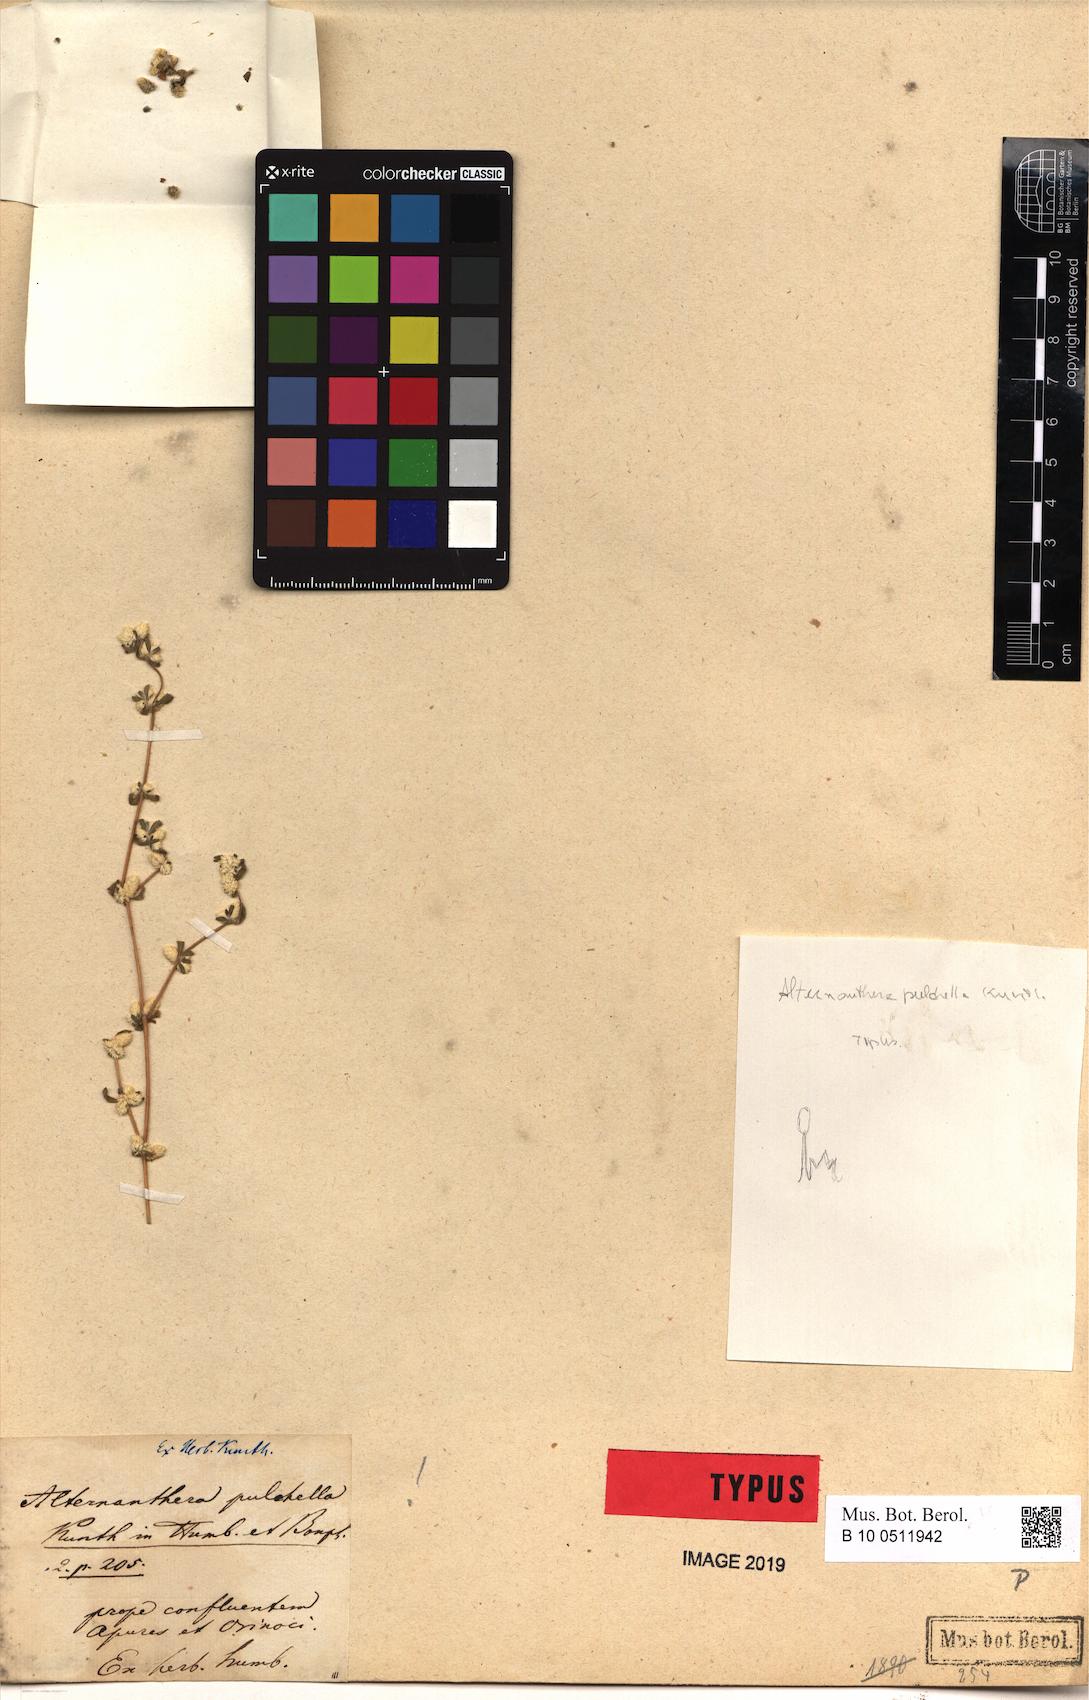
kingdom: Plantae
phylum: Tracheophyta
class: Magnoliopsida
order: Caryophyllales
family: Amaranthaceae
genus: Alternanthera
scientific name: Alternanthera pulchella
